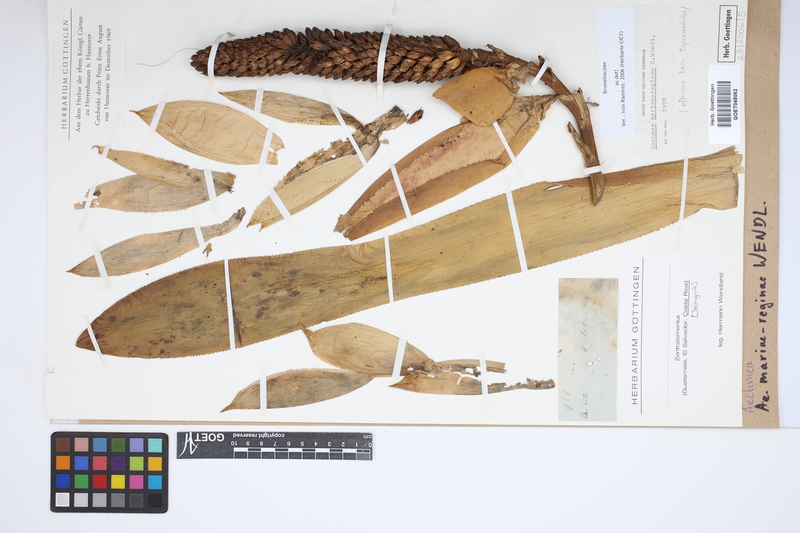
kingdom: Plantae
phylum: Tracheophyta
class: Liliopsida
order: Poales
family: Bromeliaceae
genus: Aechmea
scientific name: Aechmea mariae-reginae
